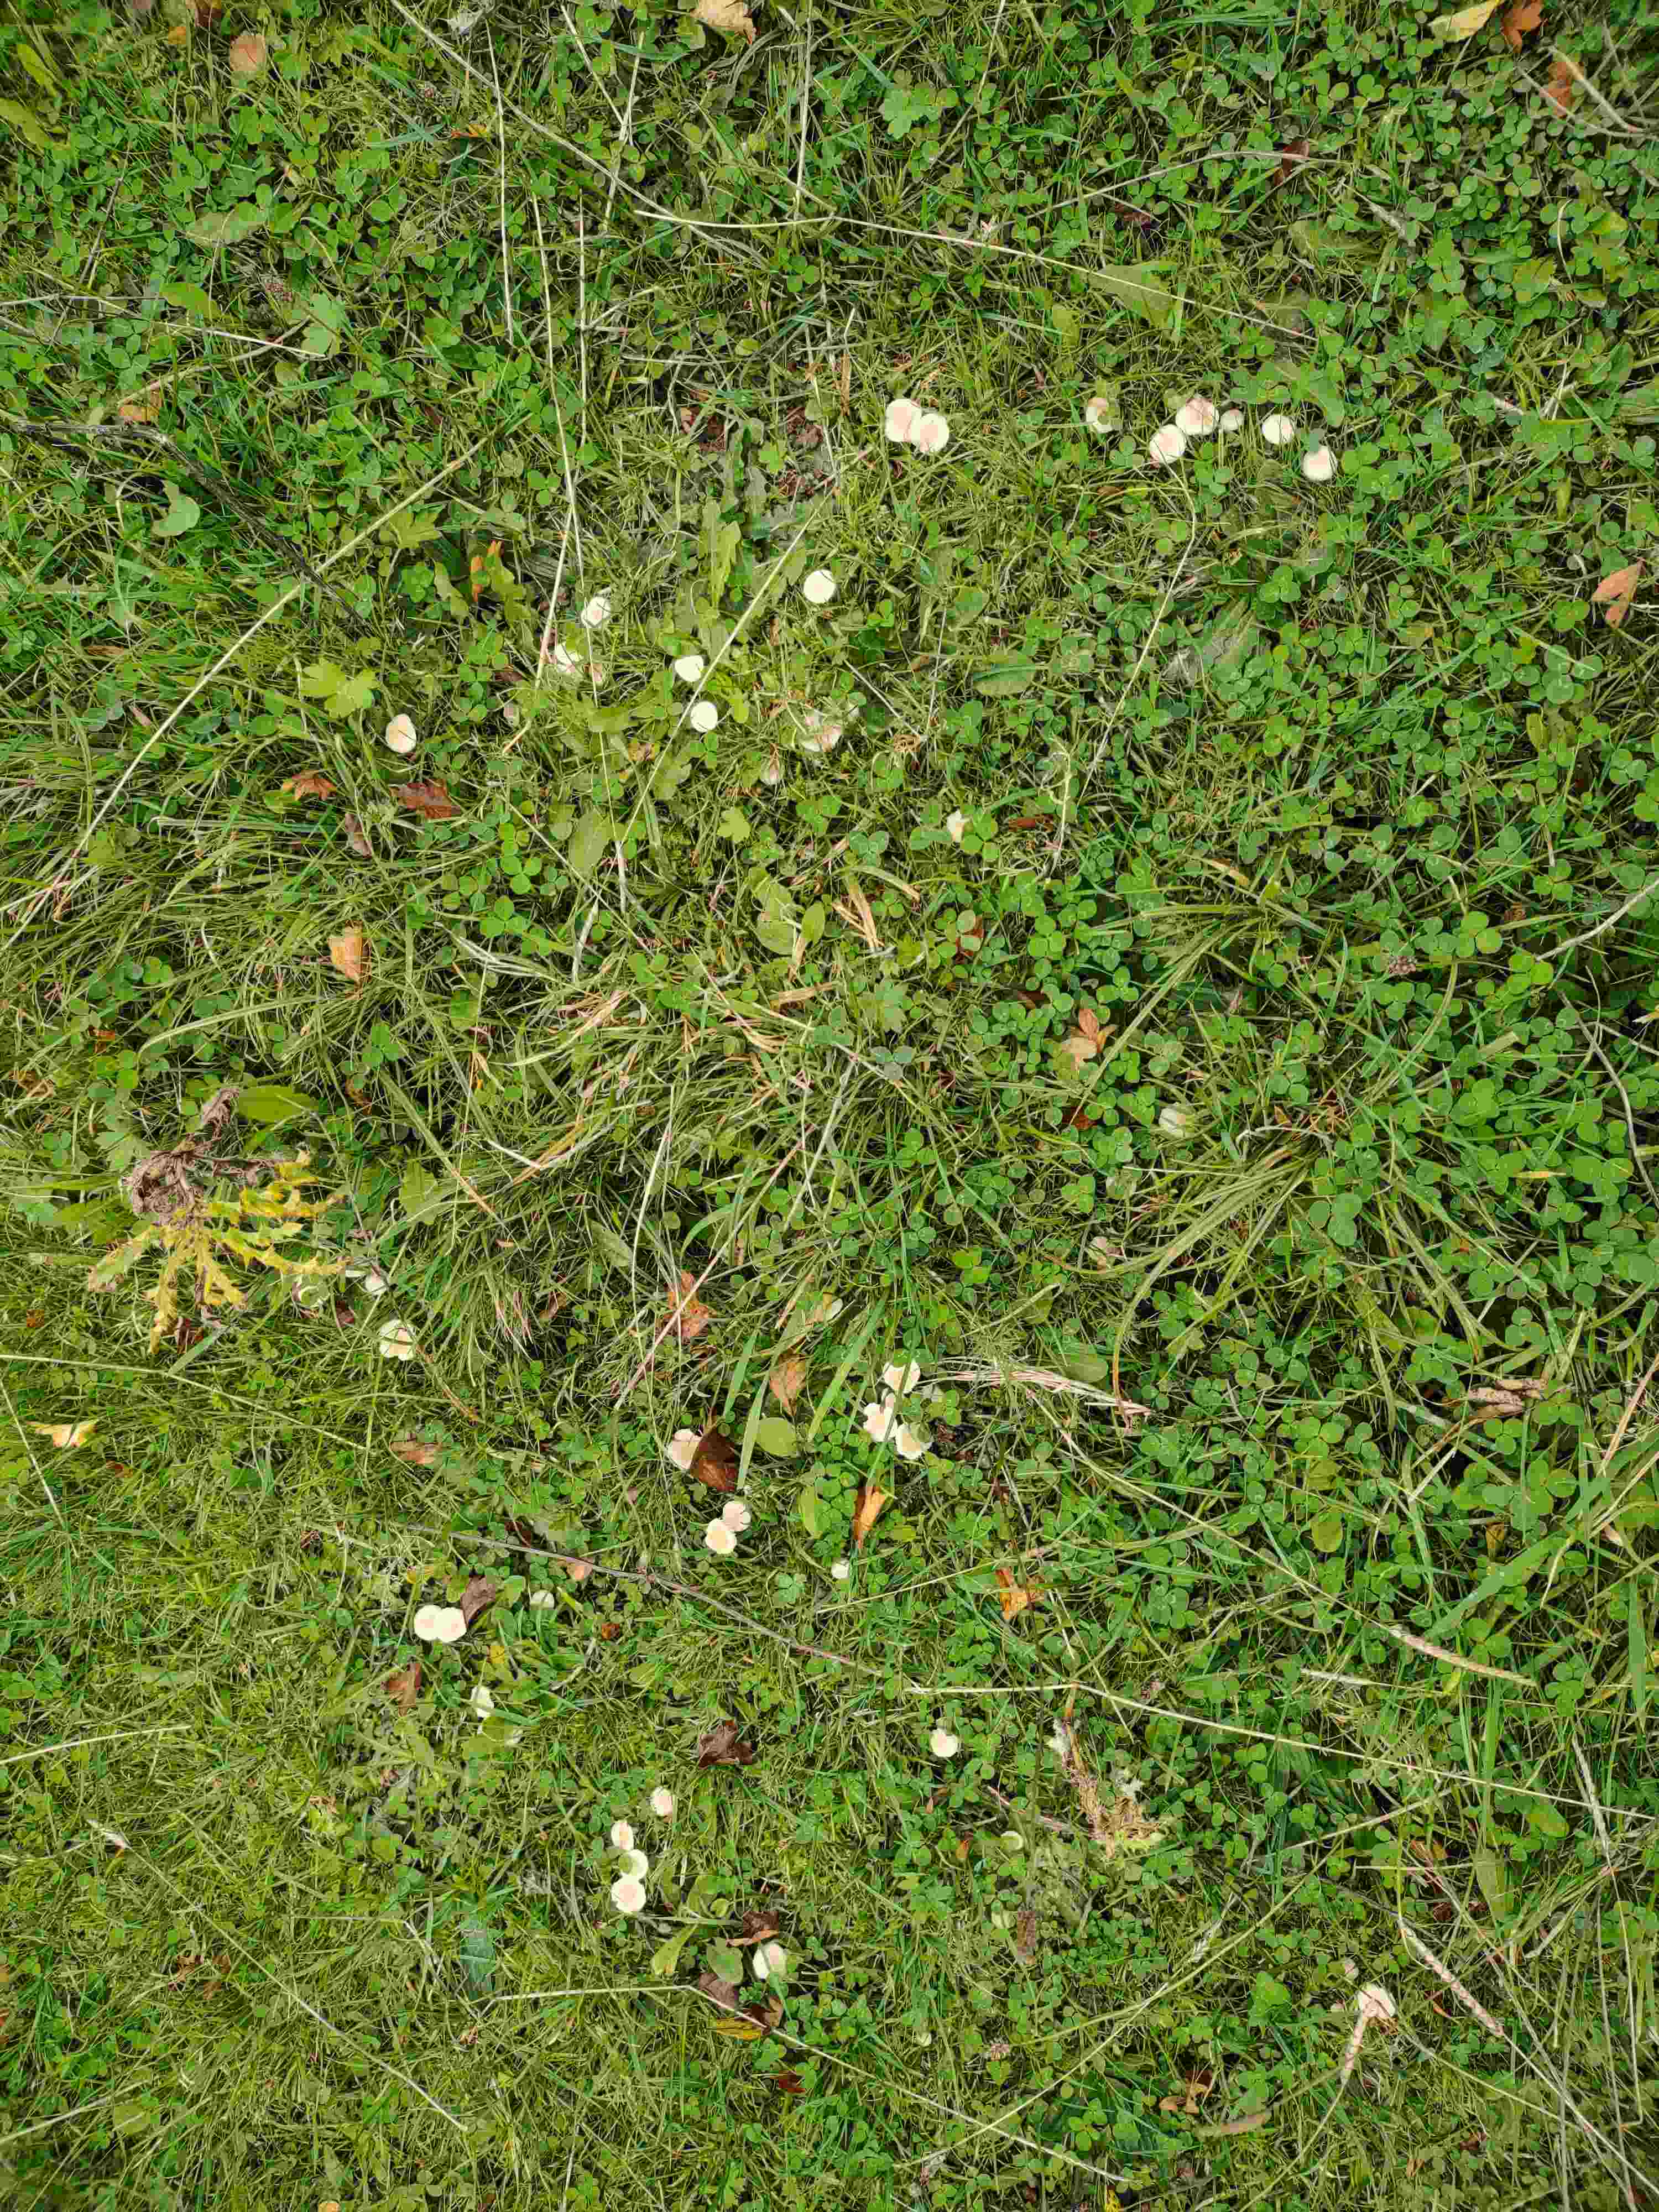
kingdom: Fungi
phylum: Basidiomycota
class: Agaricomycetes
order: Agaricales
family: Hygrophoraceae
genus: Cuphophyllus
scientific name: Cuphophyllus
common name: vokshat
